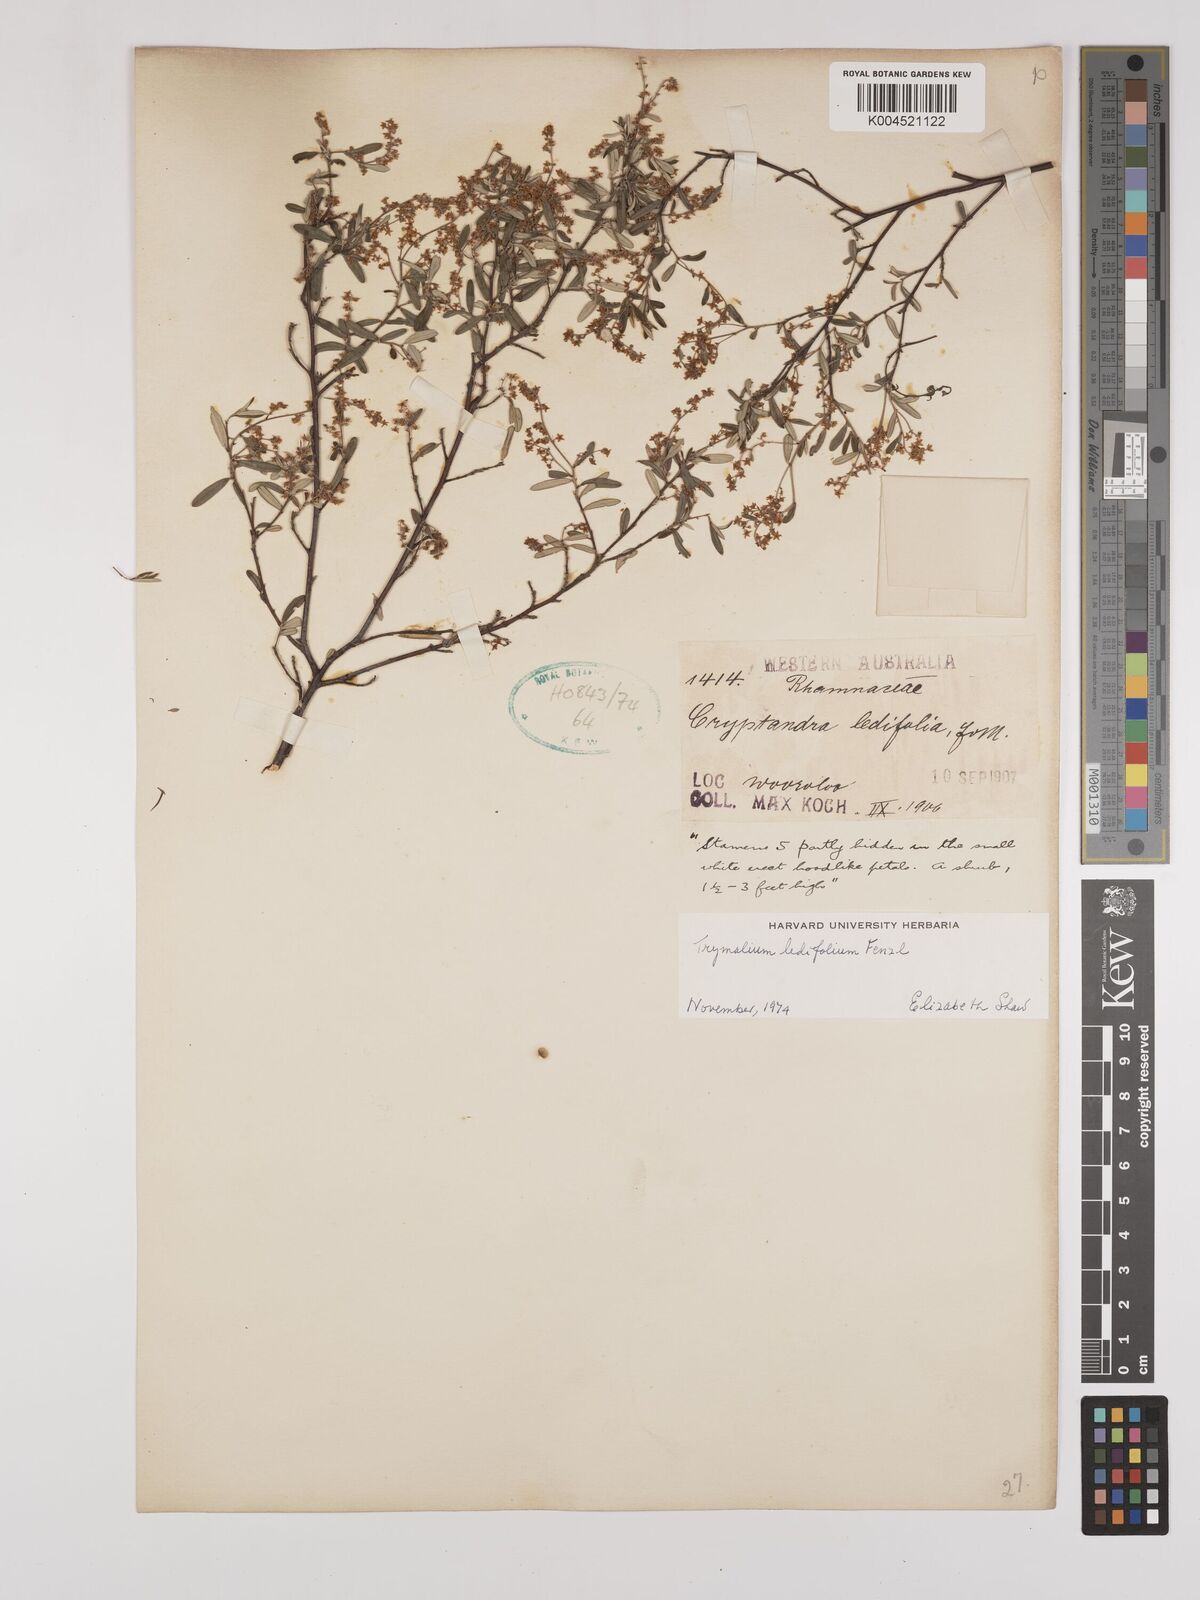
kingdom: Plantae
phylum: Tracheophyta
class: Magnoliopsida
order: Rosales
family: Rhamnaceae
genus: Trymalium
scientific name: Trymalium ledifolium
